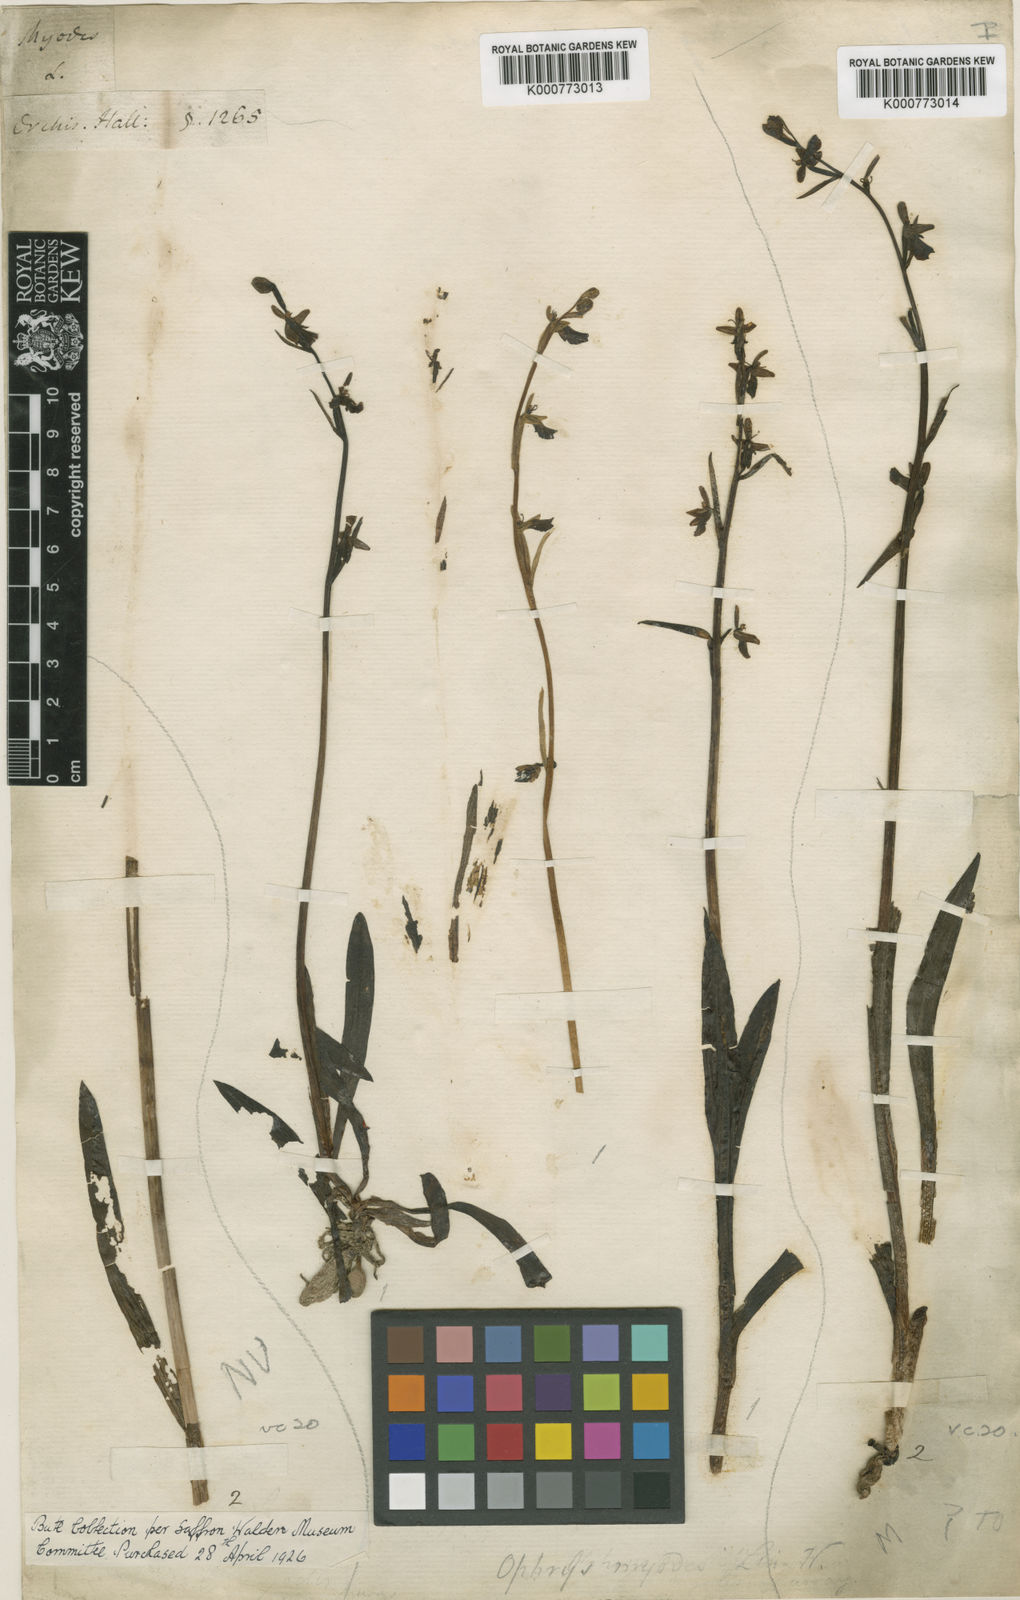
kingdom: Plantae
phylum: Tracheophyta
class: Liliopsida
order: Asparagales
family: Orchidaceae
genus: Ophrys
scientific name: Ophrys insectifera
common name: Fly orchid
